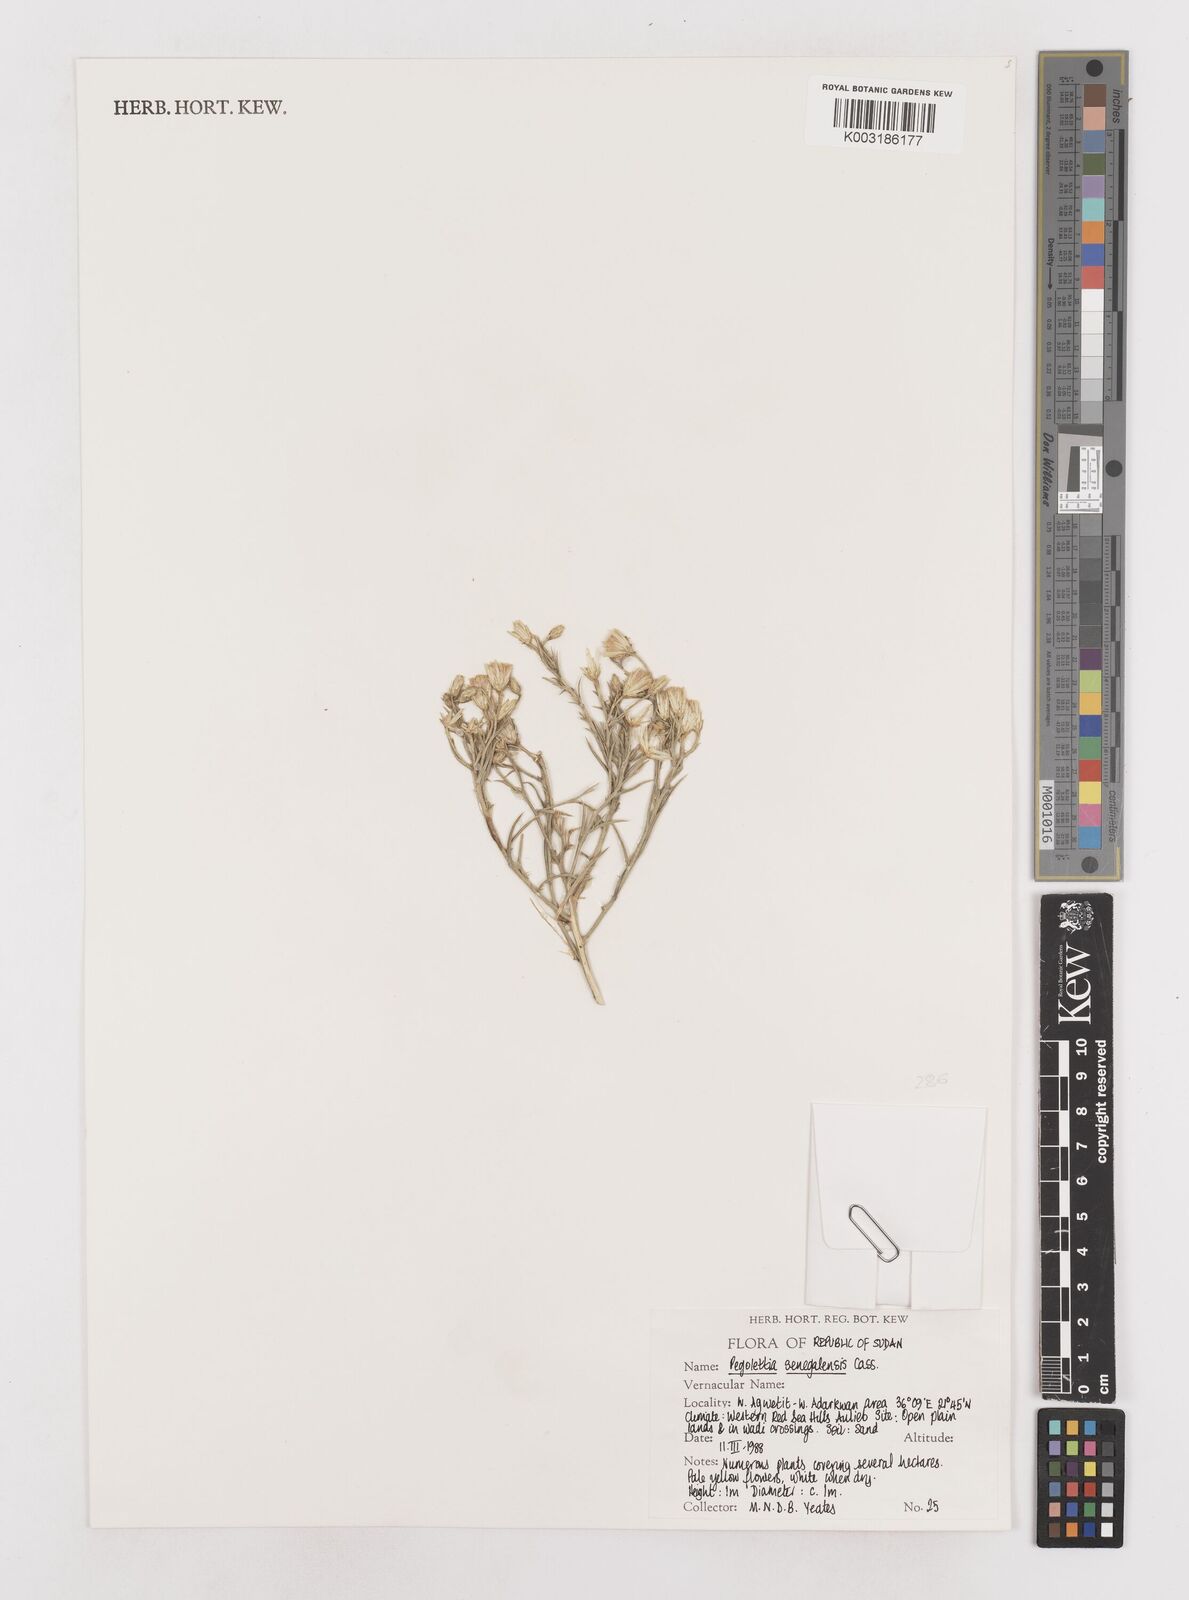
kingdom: Plantae
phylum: Tracheophyta
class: Magnoliopsida
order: Asterales
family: Asteraceae
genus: Pegolettia
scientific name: Pegolettia senegalensis
